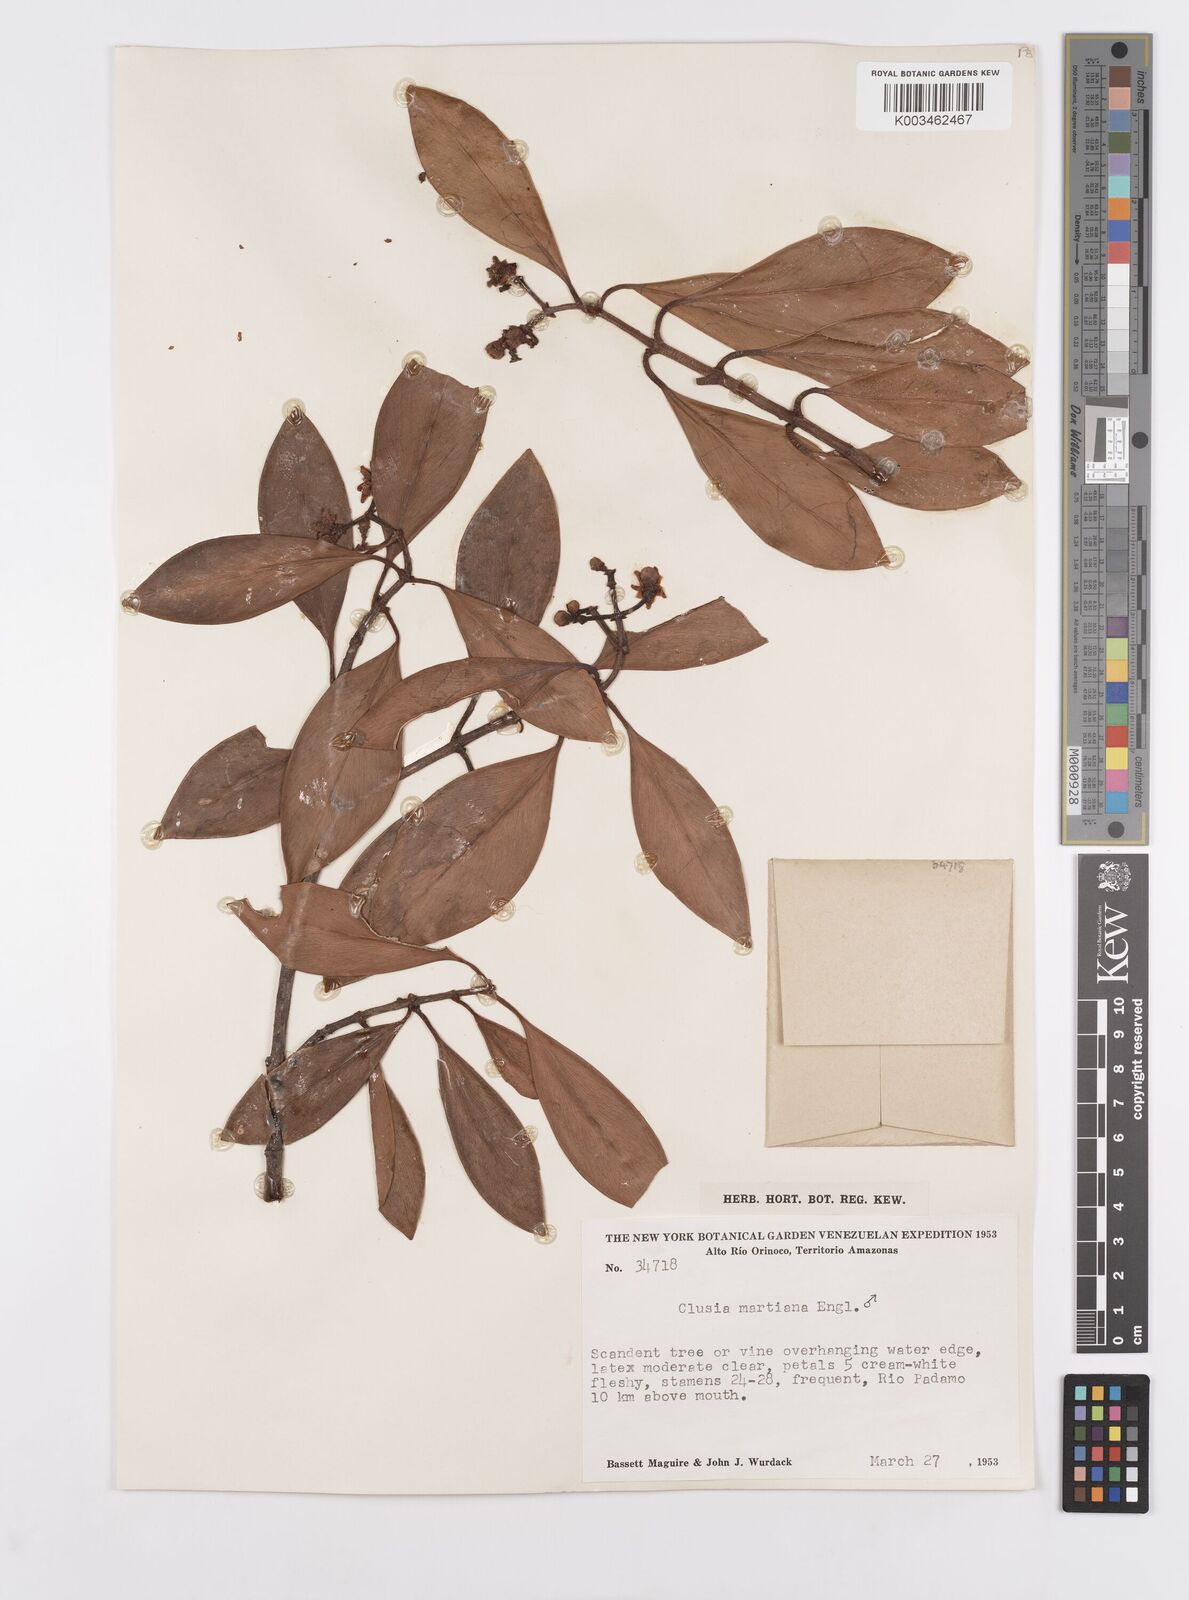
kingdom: Plantae
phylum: Tracheophyta
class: Magnoliopsida
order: Malpighiales
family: Clusiaceae
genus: Clusia
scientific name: Clusia martiana
